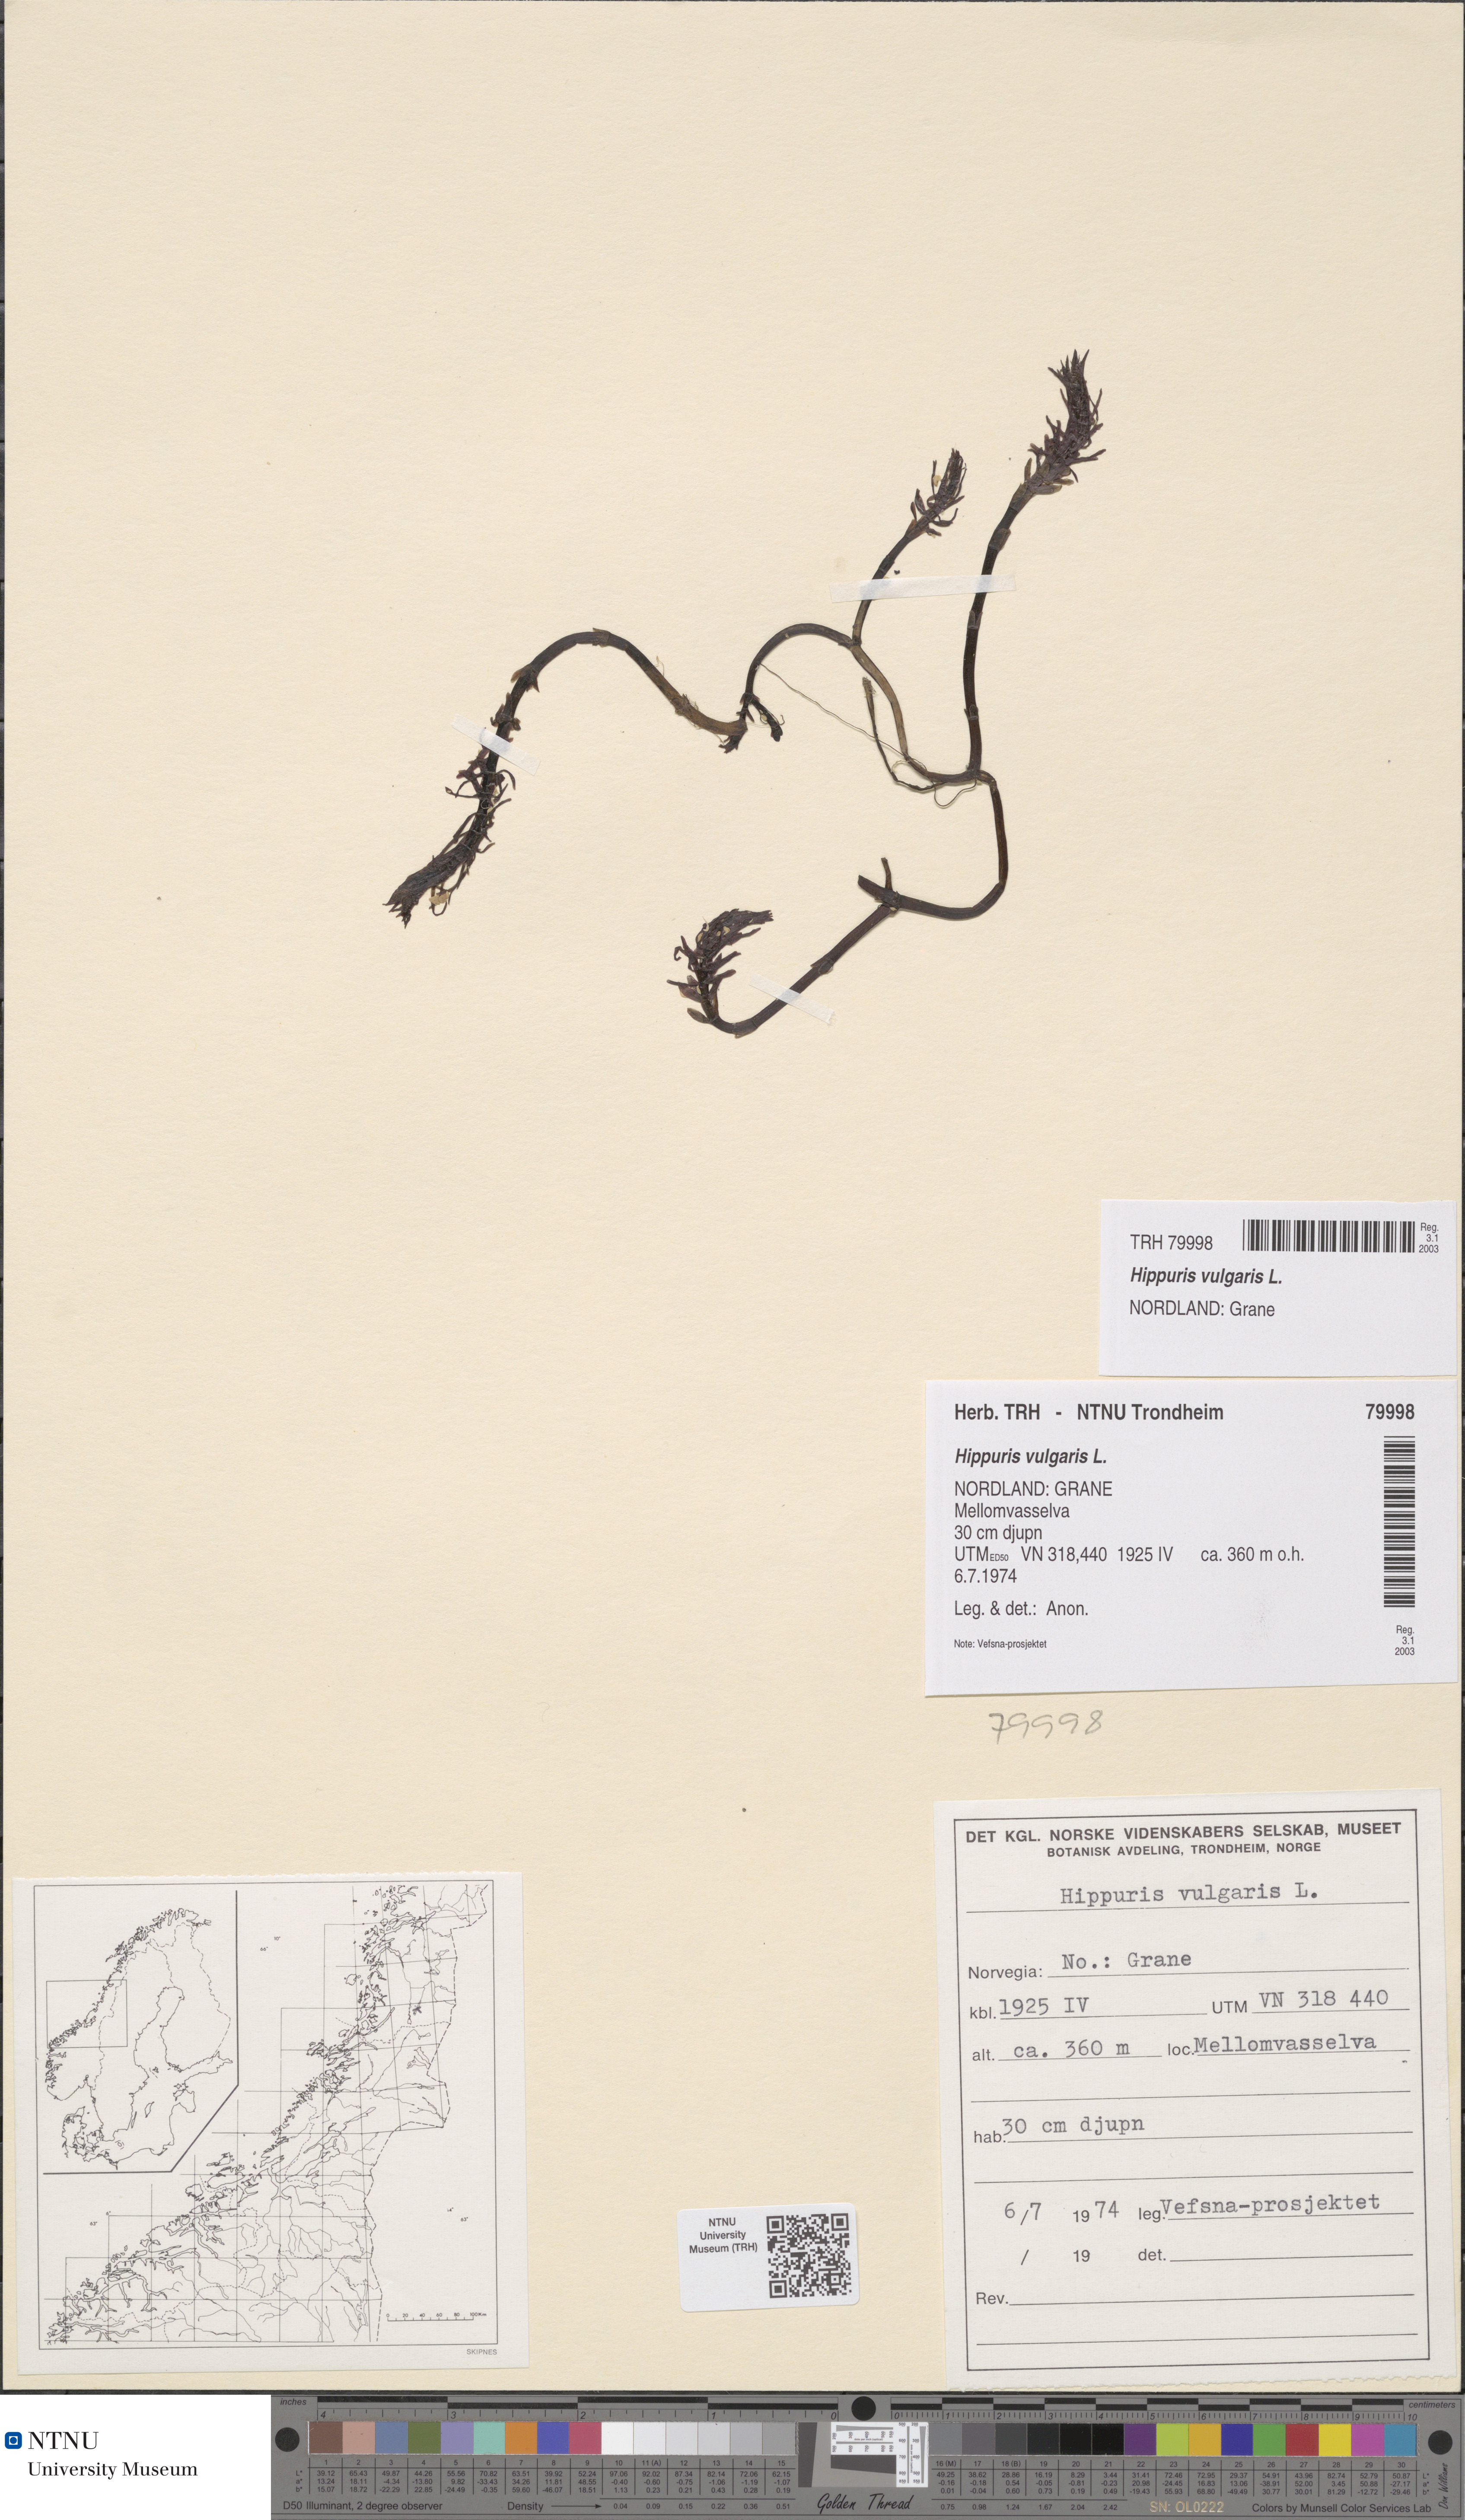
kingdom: Plantae
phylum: Tracheophyta
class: Magnoliopsida
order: Lamiales
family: Plantaginaceae
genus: Hippuris
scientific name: Hippuris vulgaris
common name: Mare's-tail
